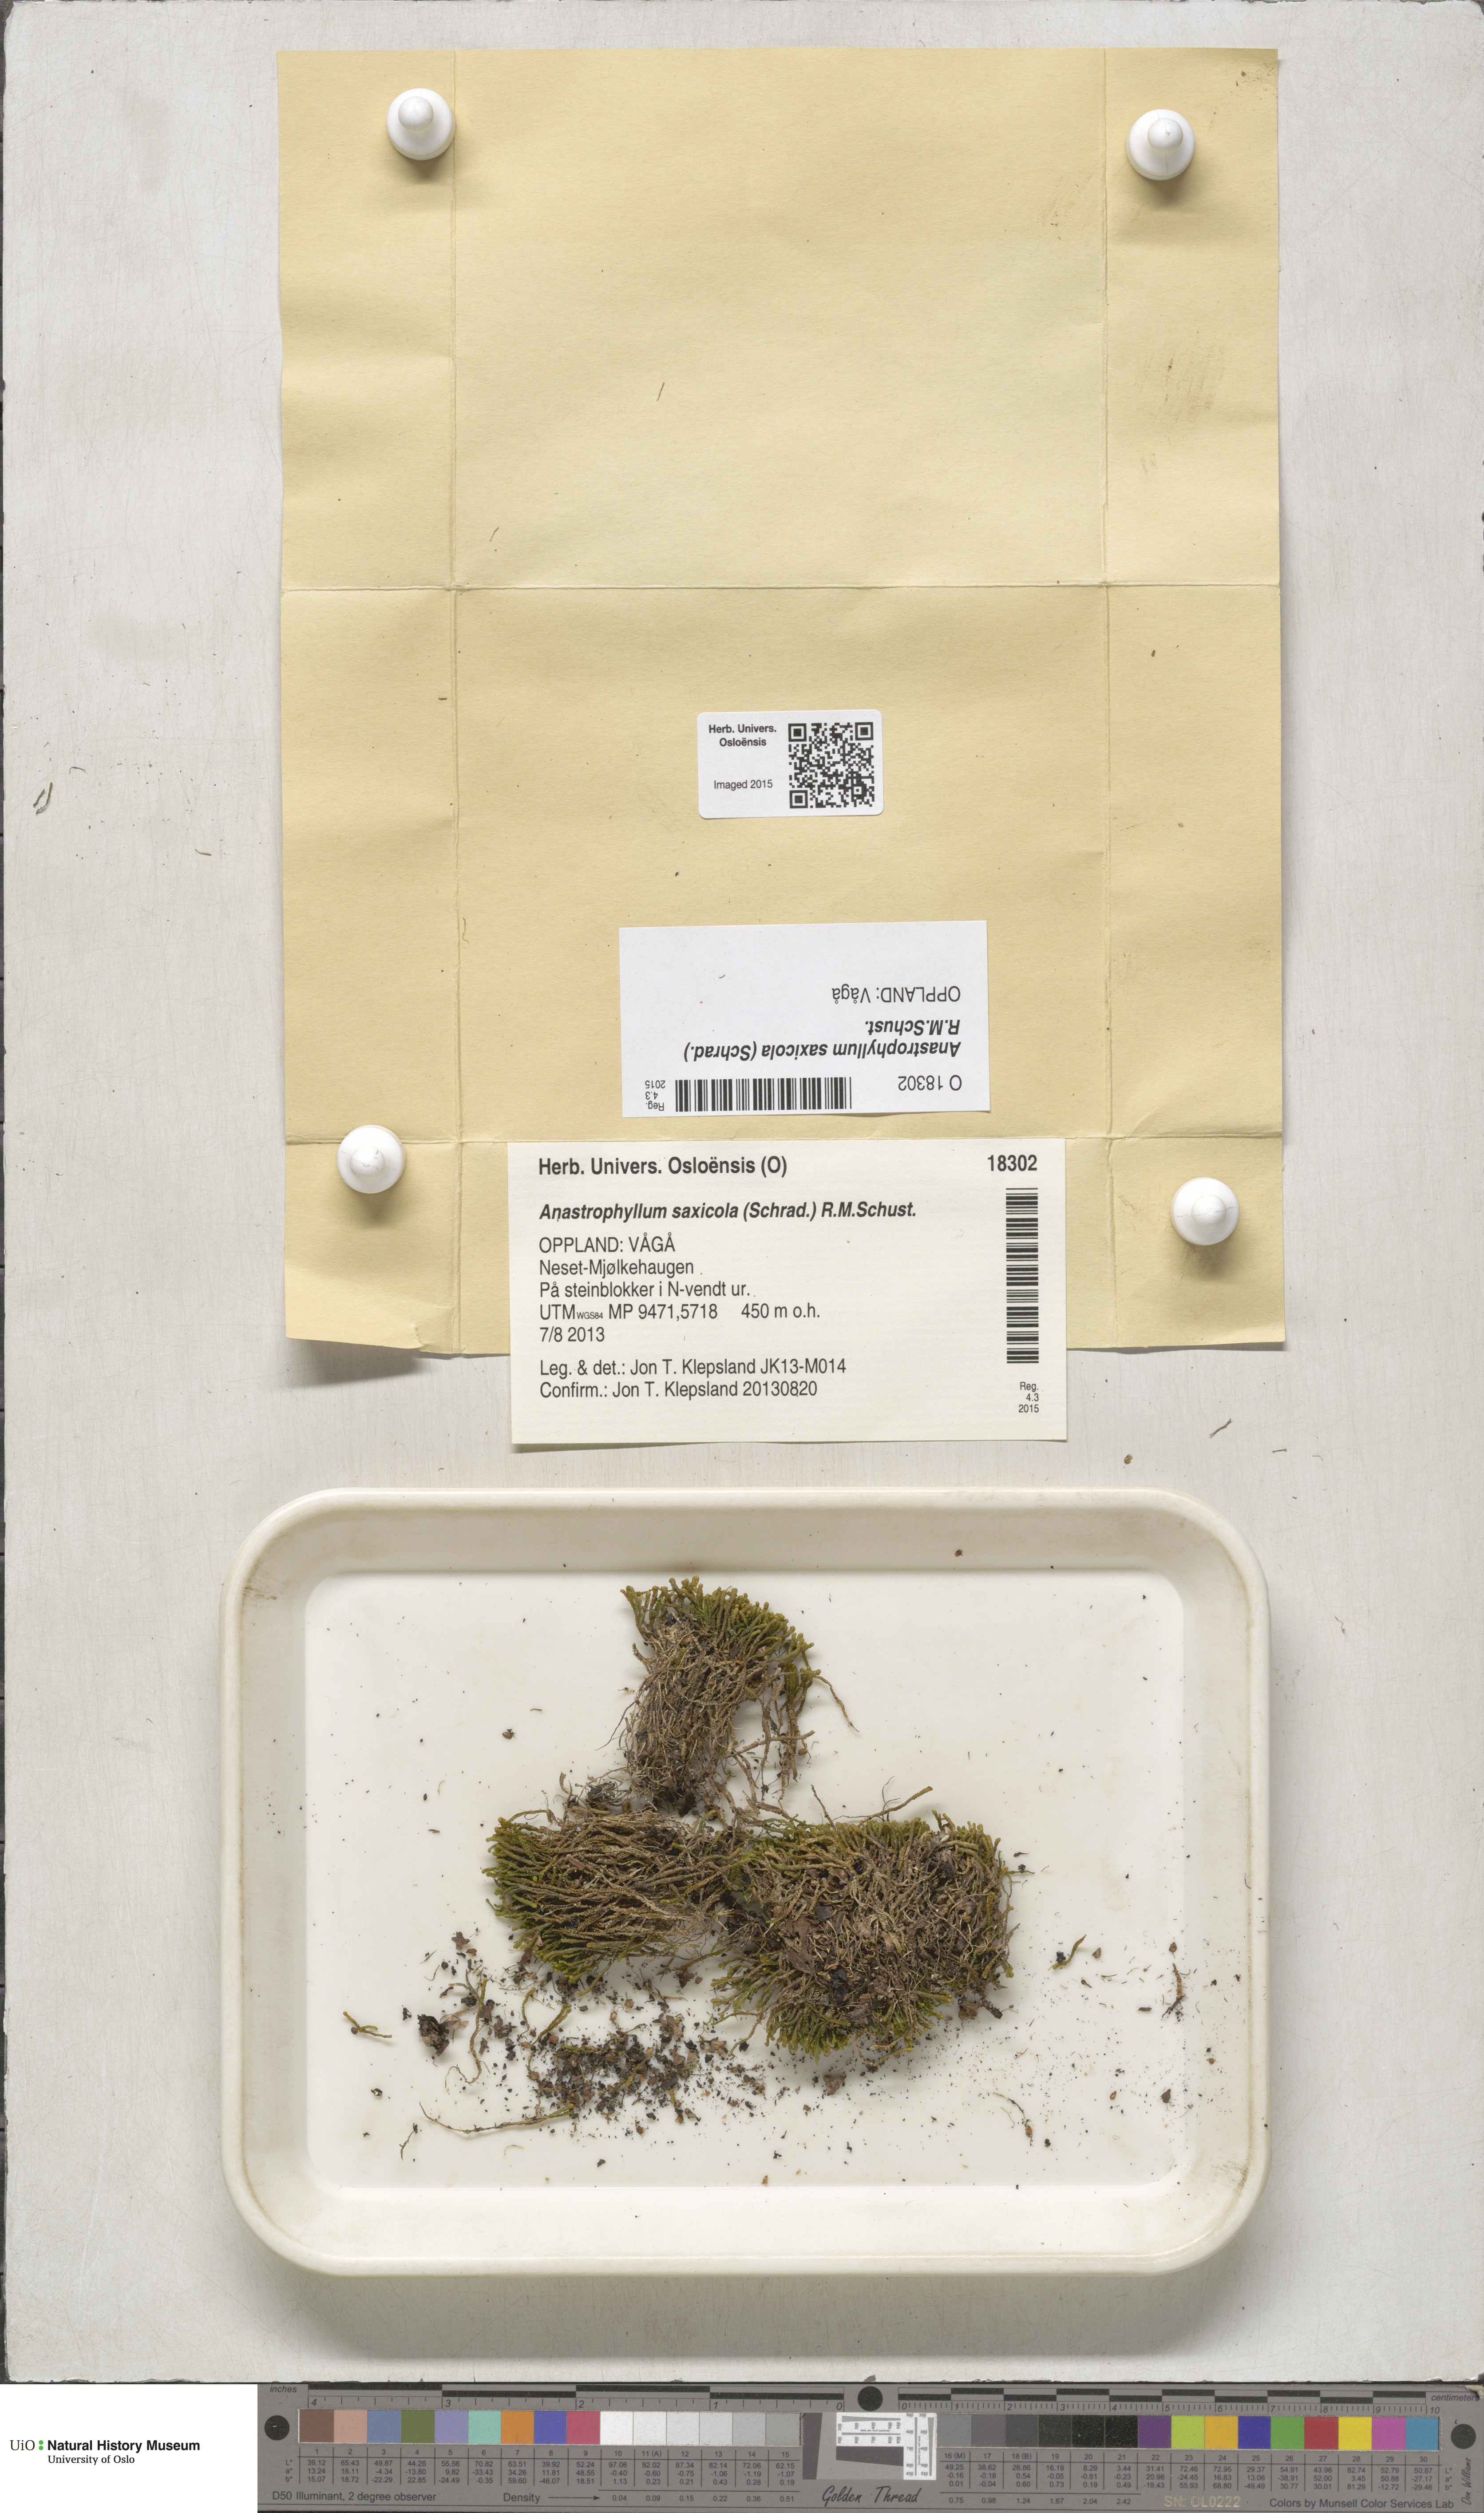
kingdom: Plantae
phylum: Marchantiophyta
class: Jungermanniopsida
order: Jungermanniales
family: Anastrophyllaceae
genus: Sphenolobus
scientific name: Sphenolobus saxicola
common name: Curled notchwort
